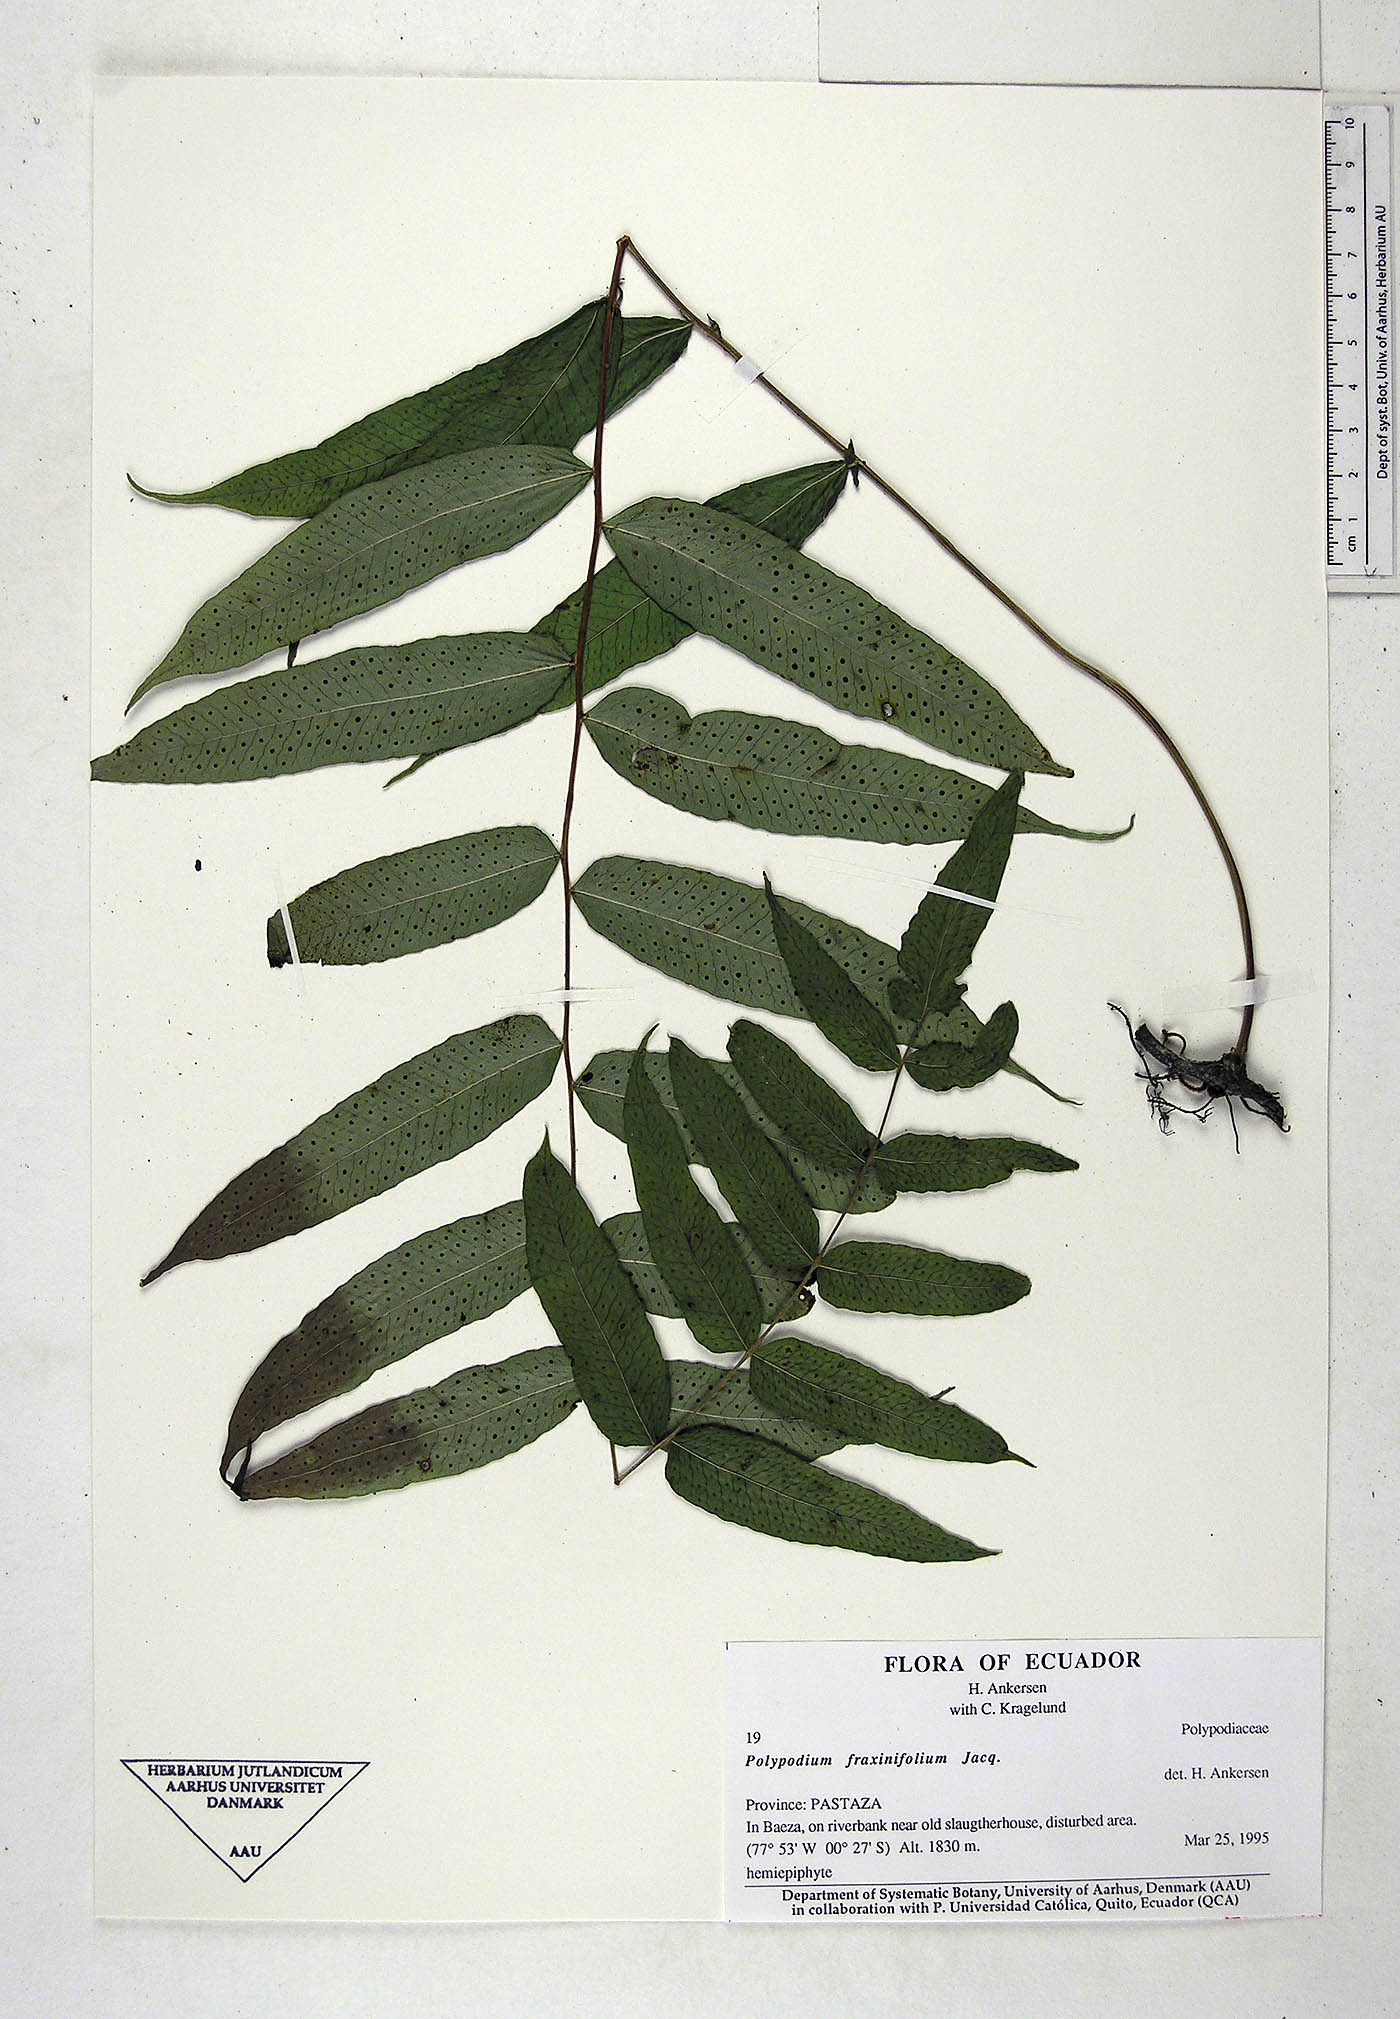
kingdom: Plantae
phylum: Tracheophyta
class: Polypodiopsida
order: Polypodiales
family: Polypodiaceae
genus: Serpocaulon
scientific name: Serpocaulon fraxinifolium
